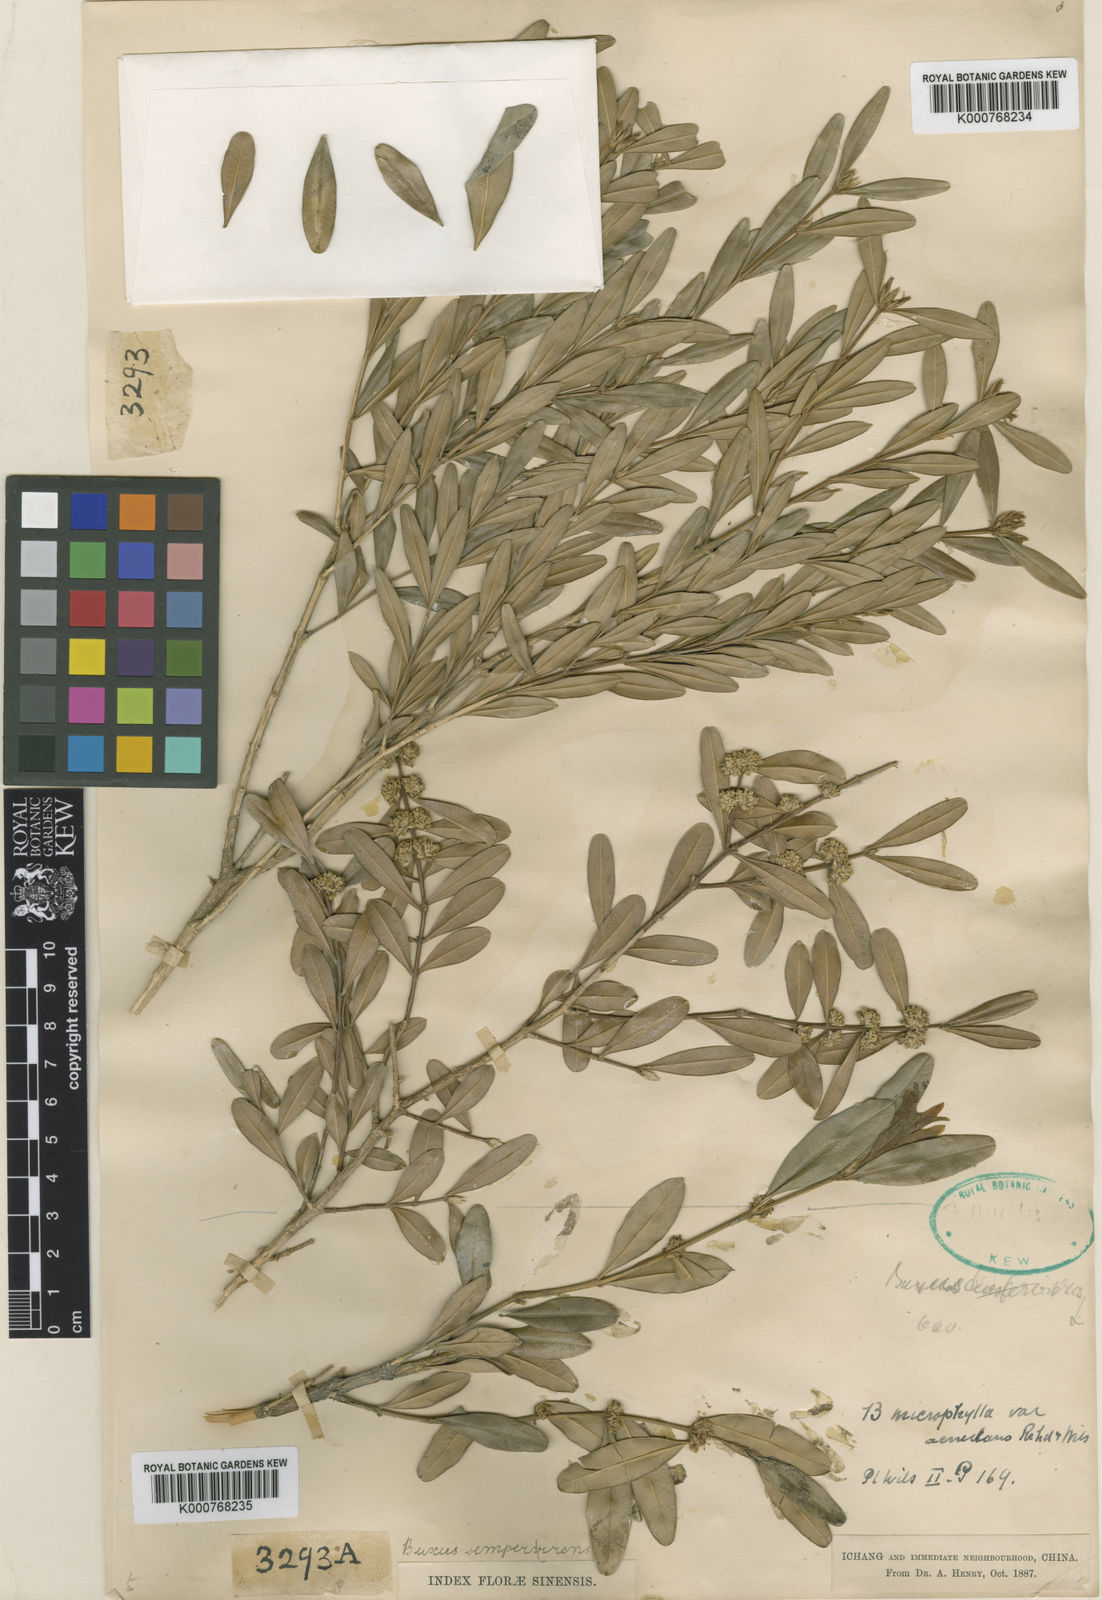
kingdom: Plantae
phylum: Tracheophyta
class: Magnoliopsida
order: Buxales
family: Buxaceae
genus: Buxus
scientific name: Buxus sinica
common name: Chinese boxwood
